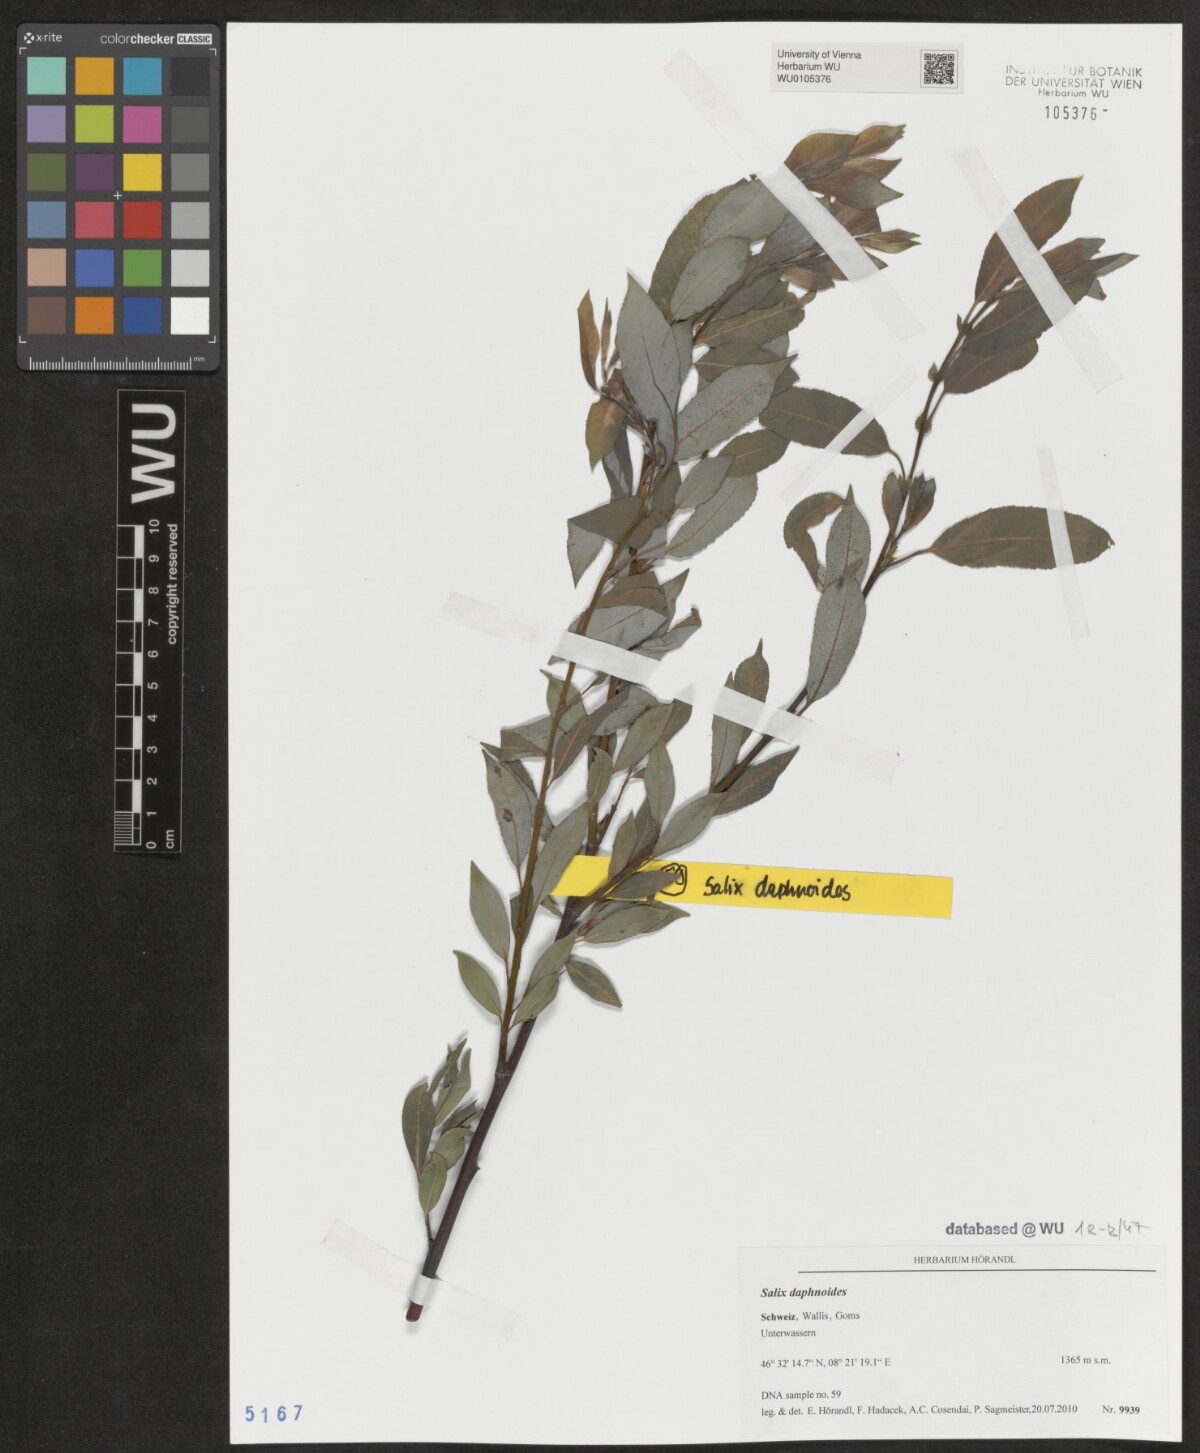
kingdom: Plantae
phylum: Tracheophyta
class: Magnoliopsida
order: Malpighiales
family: Salicaceae
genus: Salix
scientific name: Salix daphnoides
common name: European violet-willow
